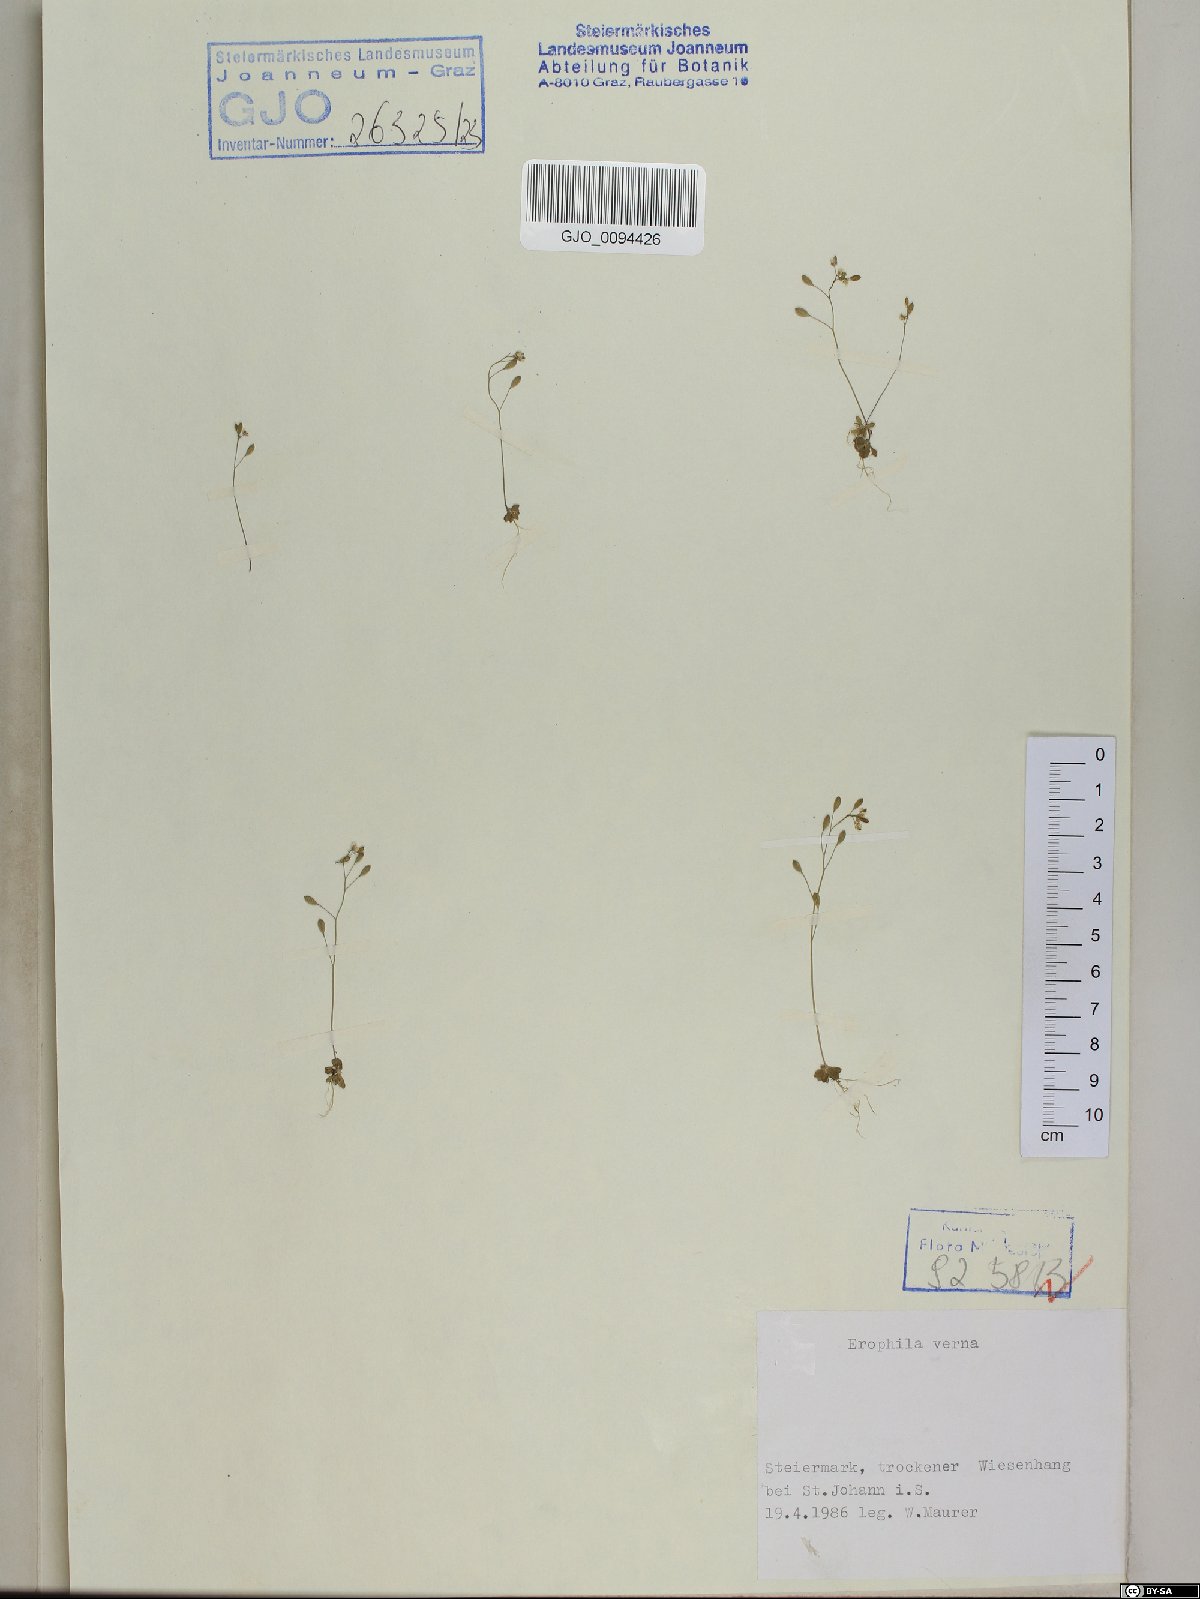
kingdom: Plantae
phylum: Tracheophyta
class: Magnoliopsida
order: Brassicales
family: Brassicaceae
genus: Draba
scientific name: Draba verna
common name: Spring draba
